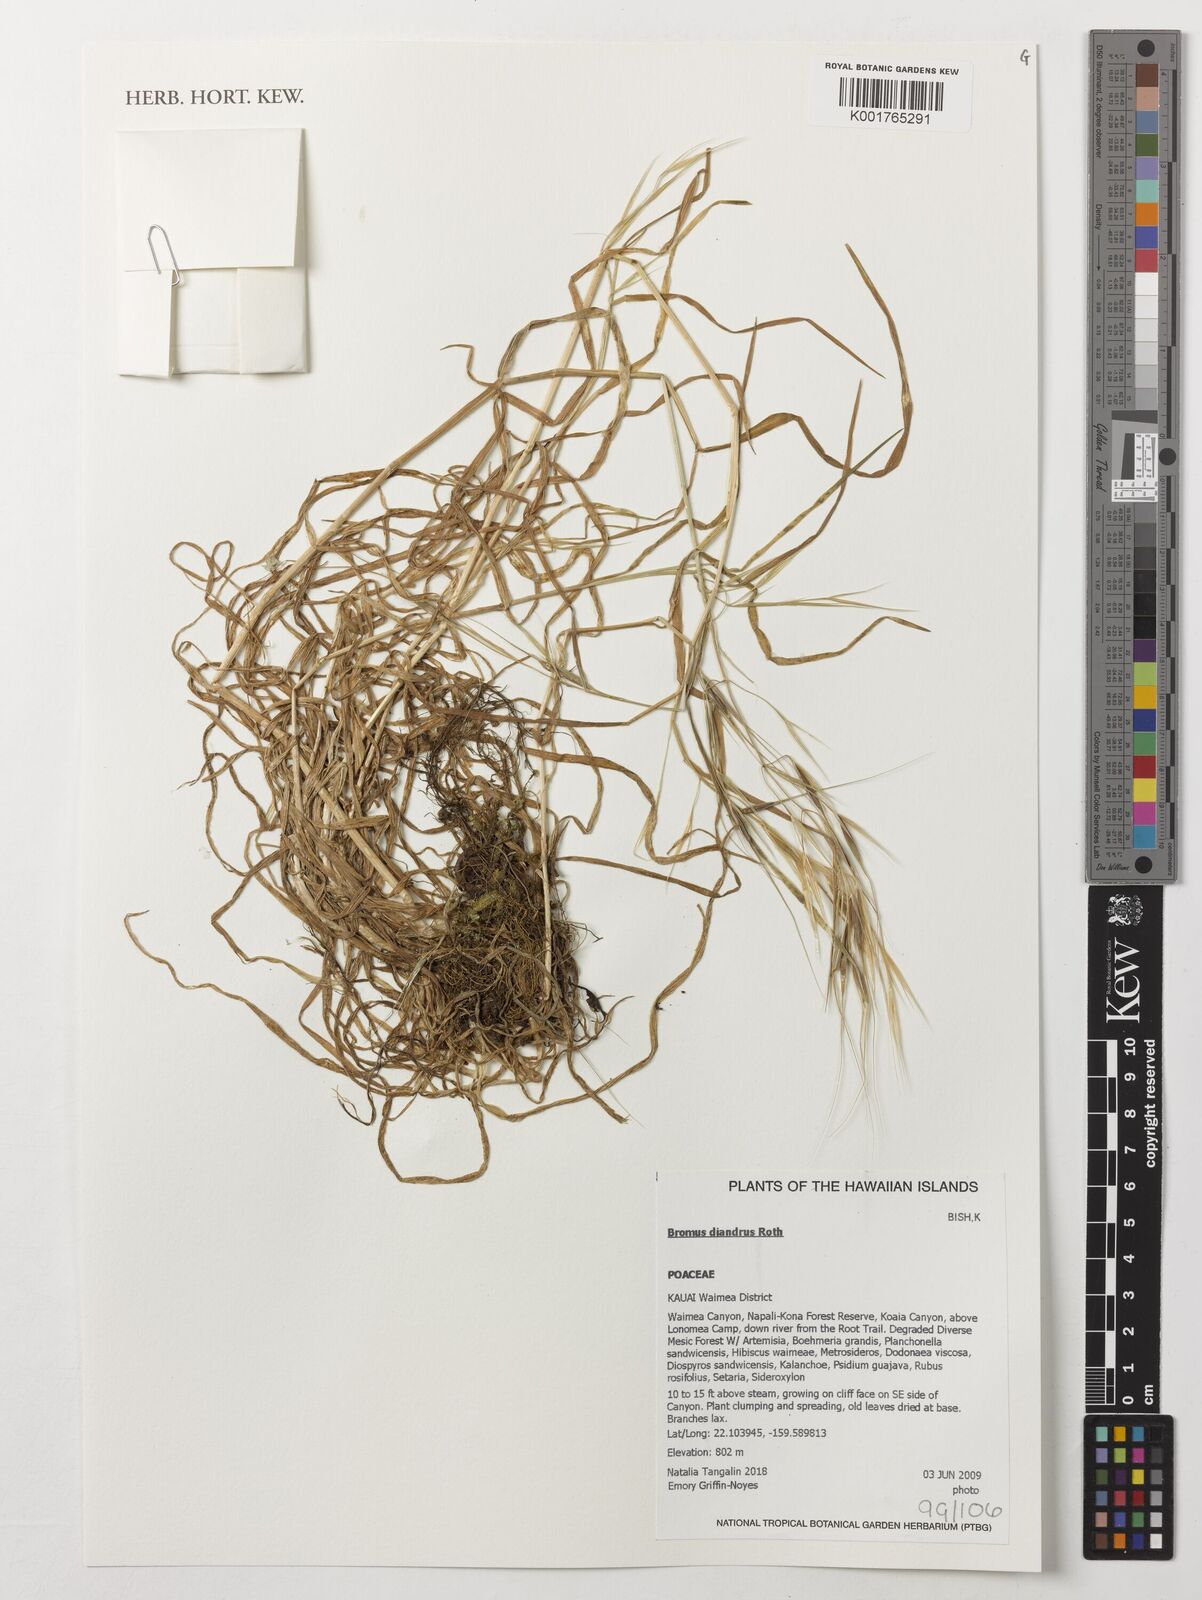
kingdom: Plantae
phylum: Tracheophyta
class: Liliopsida
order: Poales
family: Poaceae
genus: Bromus
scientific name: Bromus diandrus
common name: Ripgut brome
